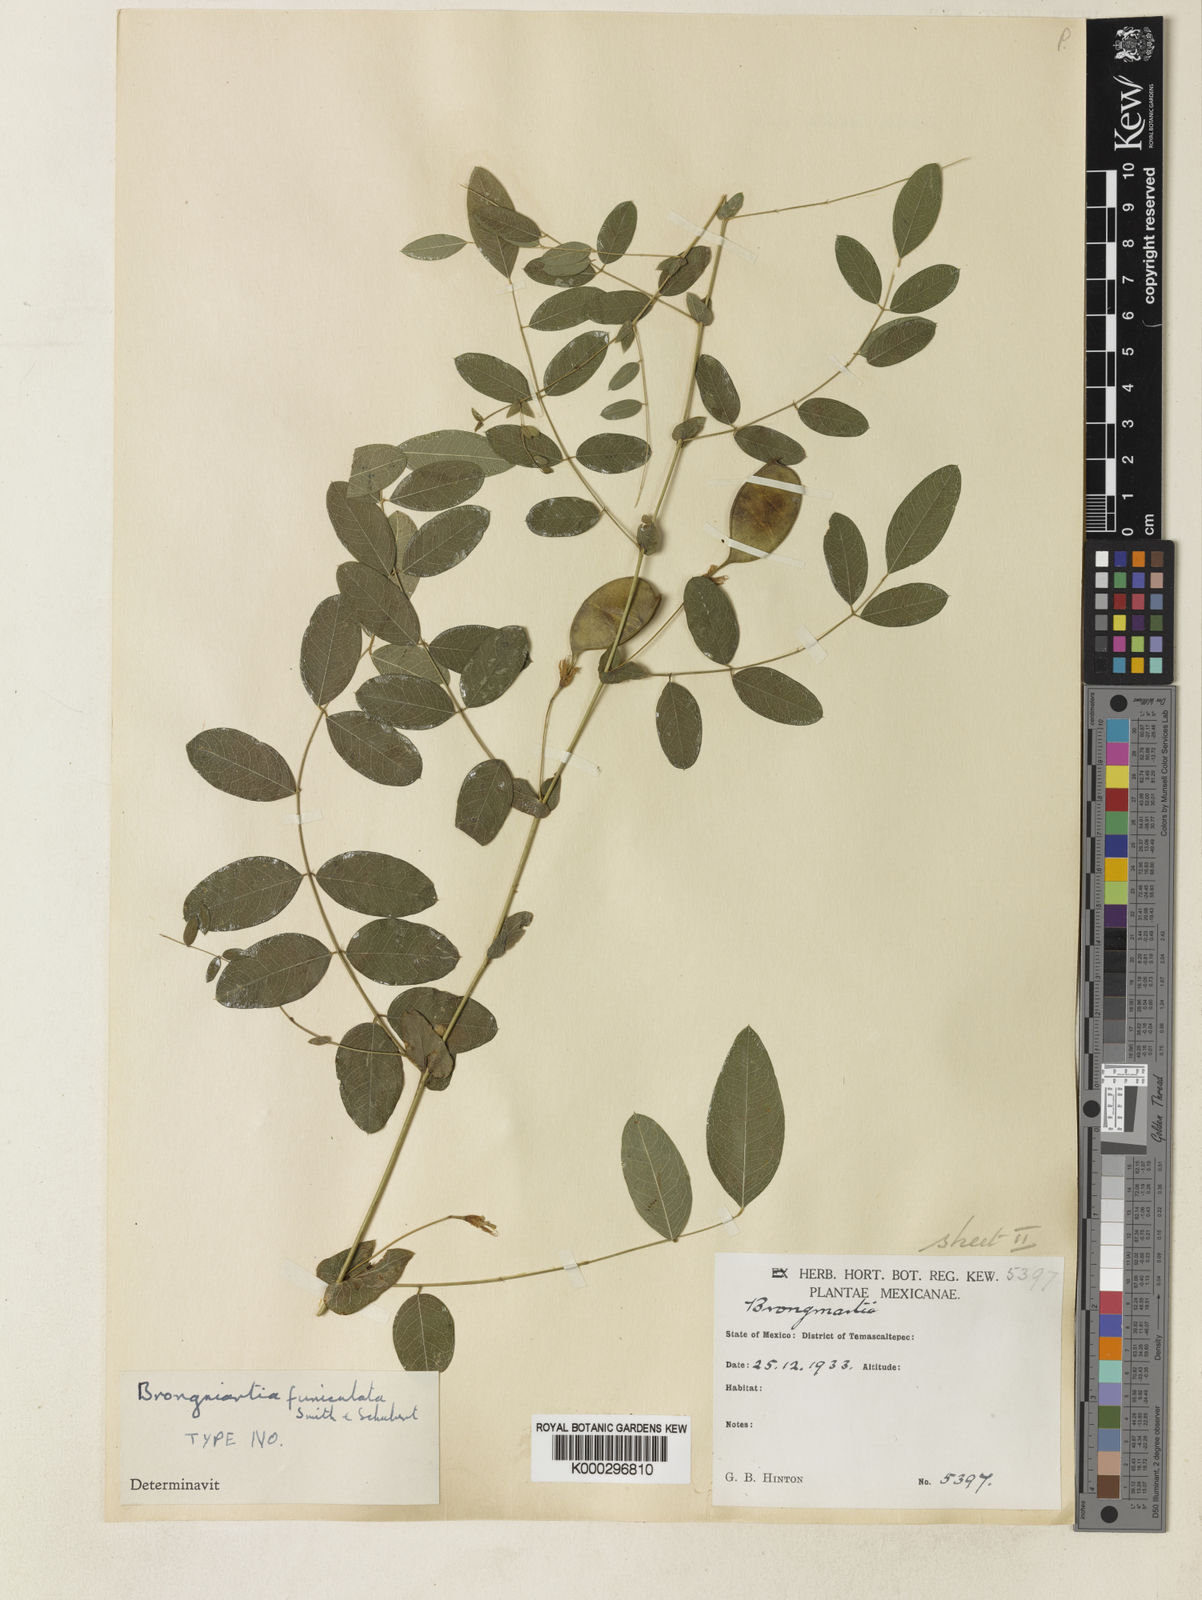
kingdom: Plantae
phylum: Tracheophyta
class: Magnoliopsida
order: Fabales
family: Fabaceae
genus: Brongniartia
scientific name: Brongniartia funiculata
